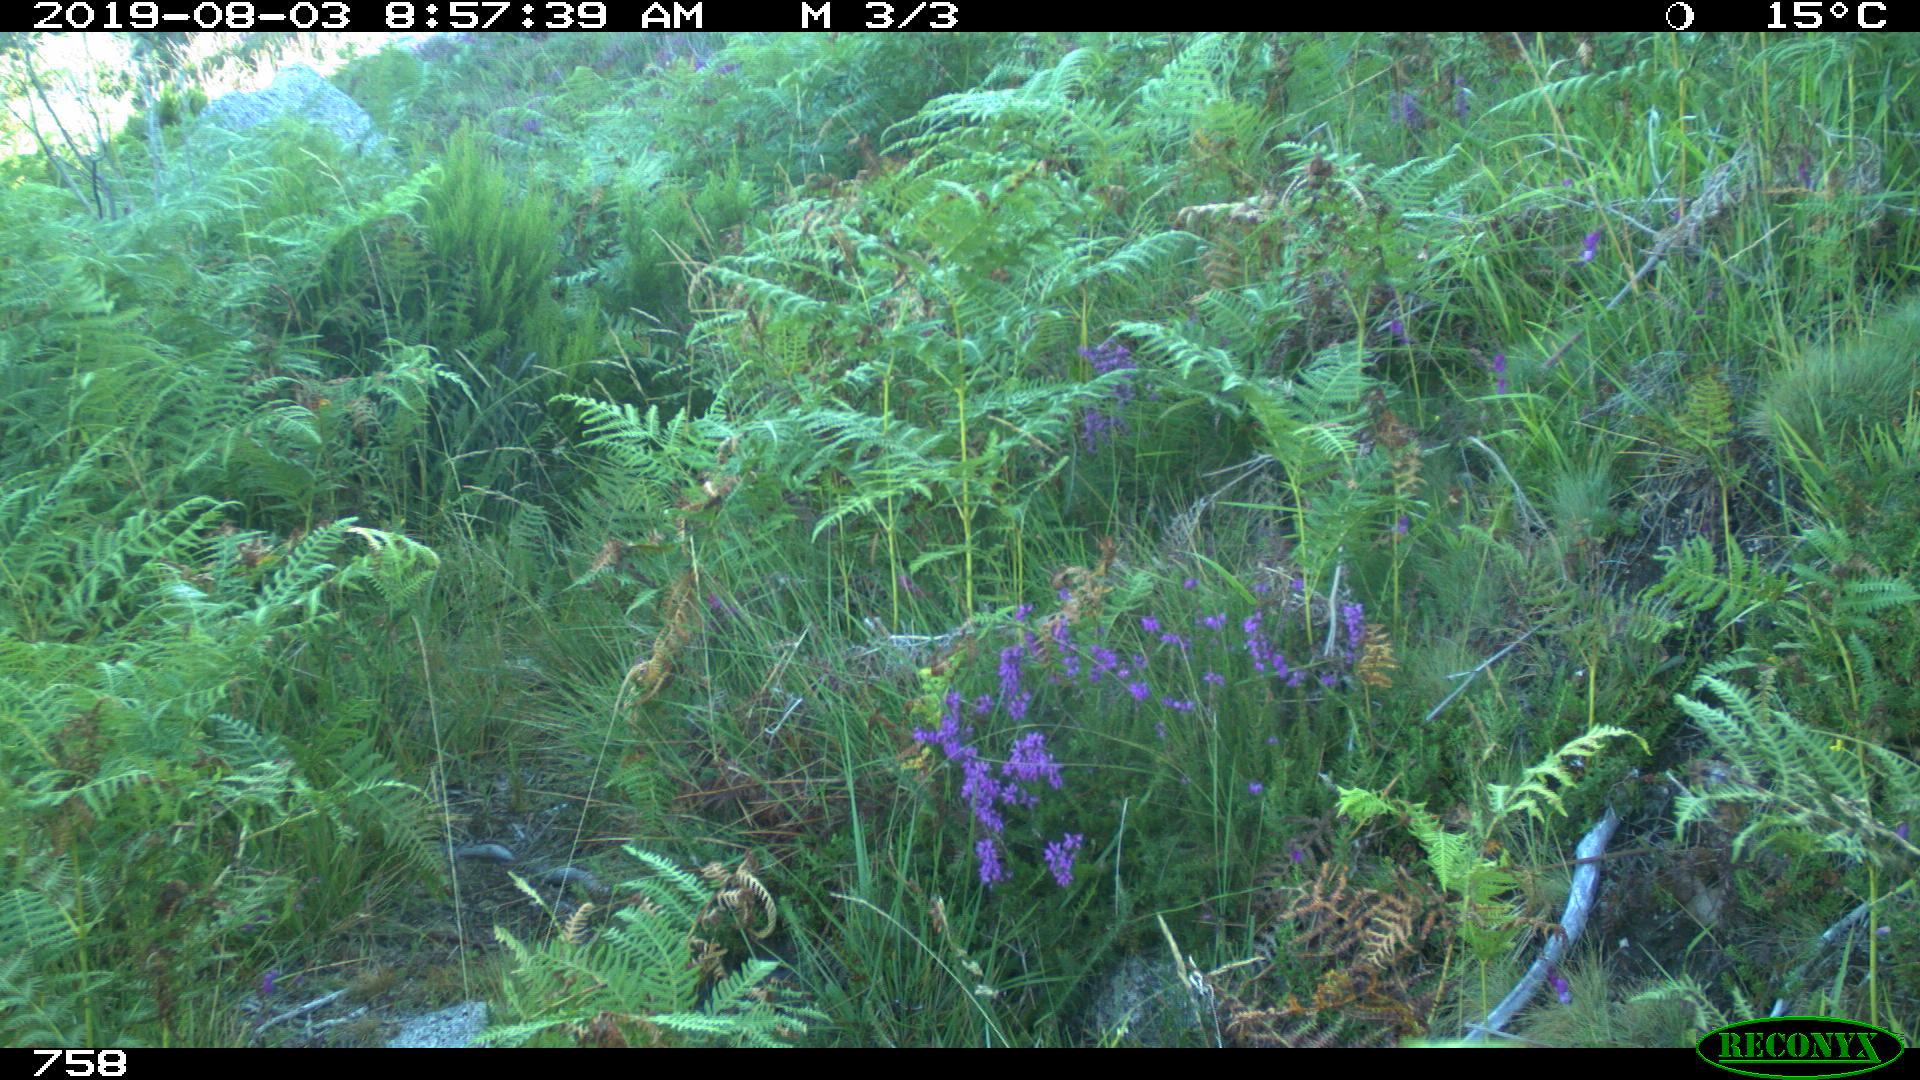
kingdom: Animalia
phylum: Chordata
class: Mammalia
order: Artiodactyla
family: Cervidae
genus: Capreolus
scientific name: Capreolus capreolus
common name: Western roe deer
